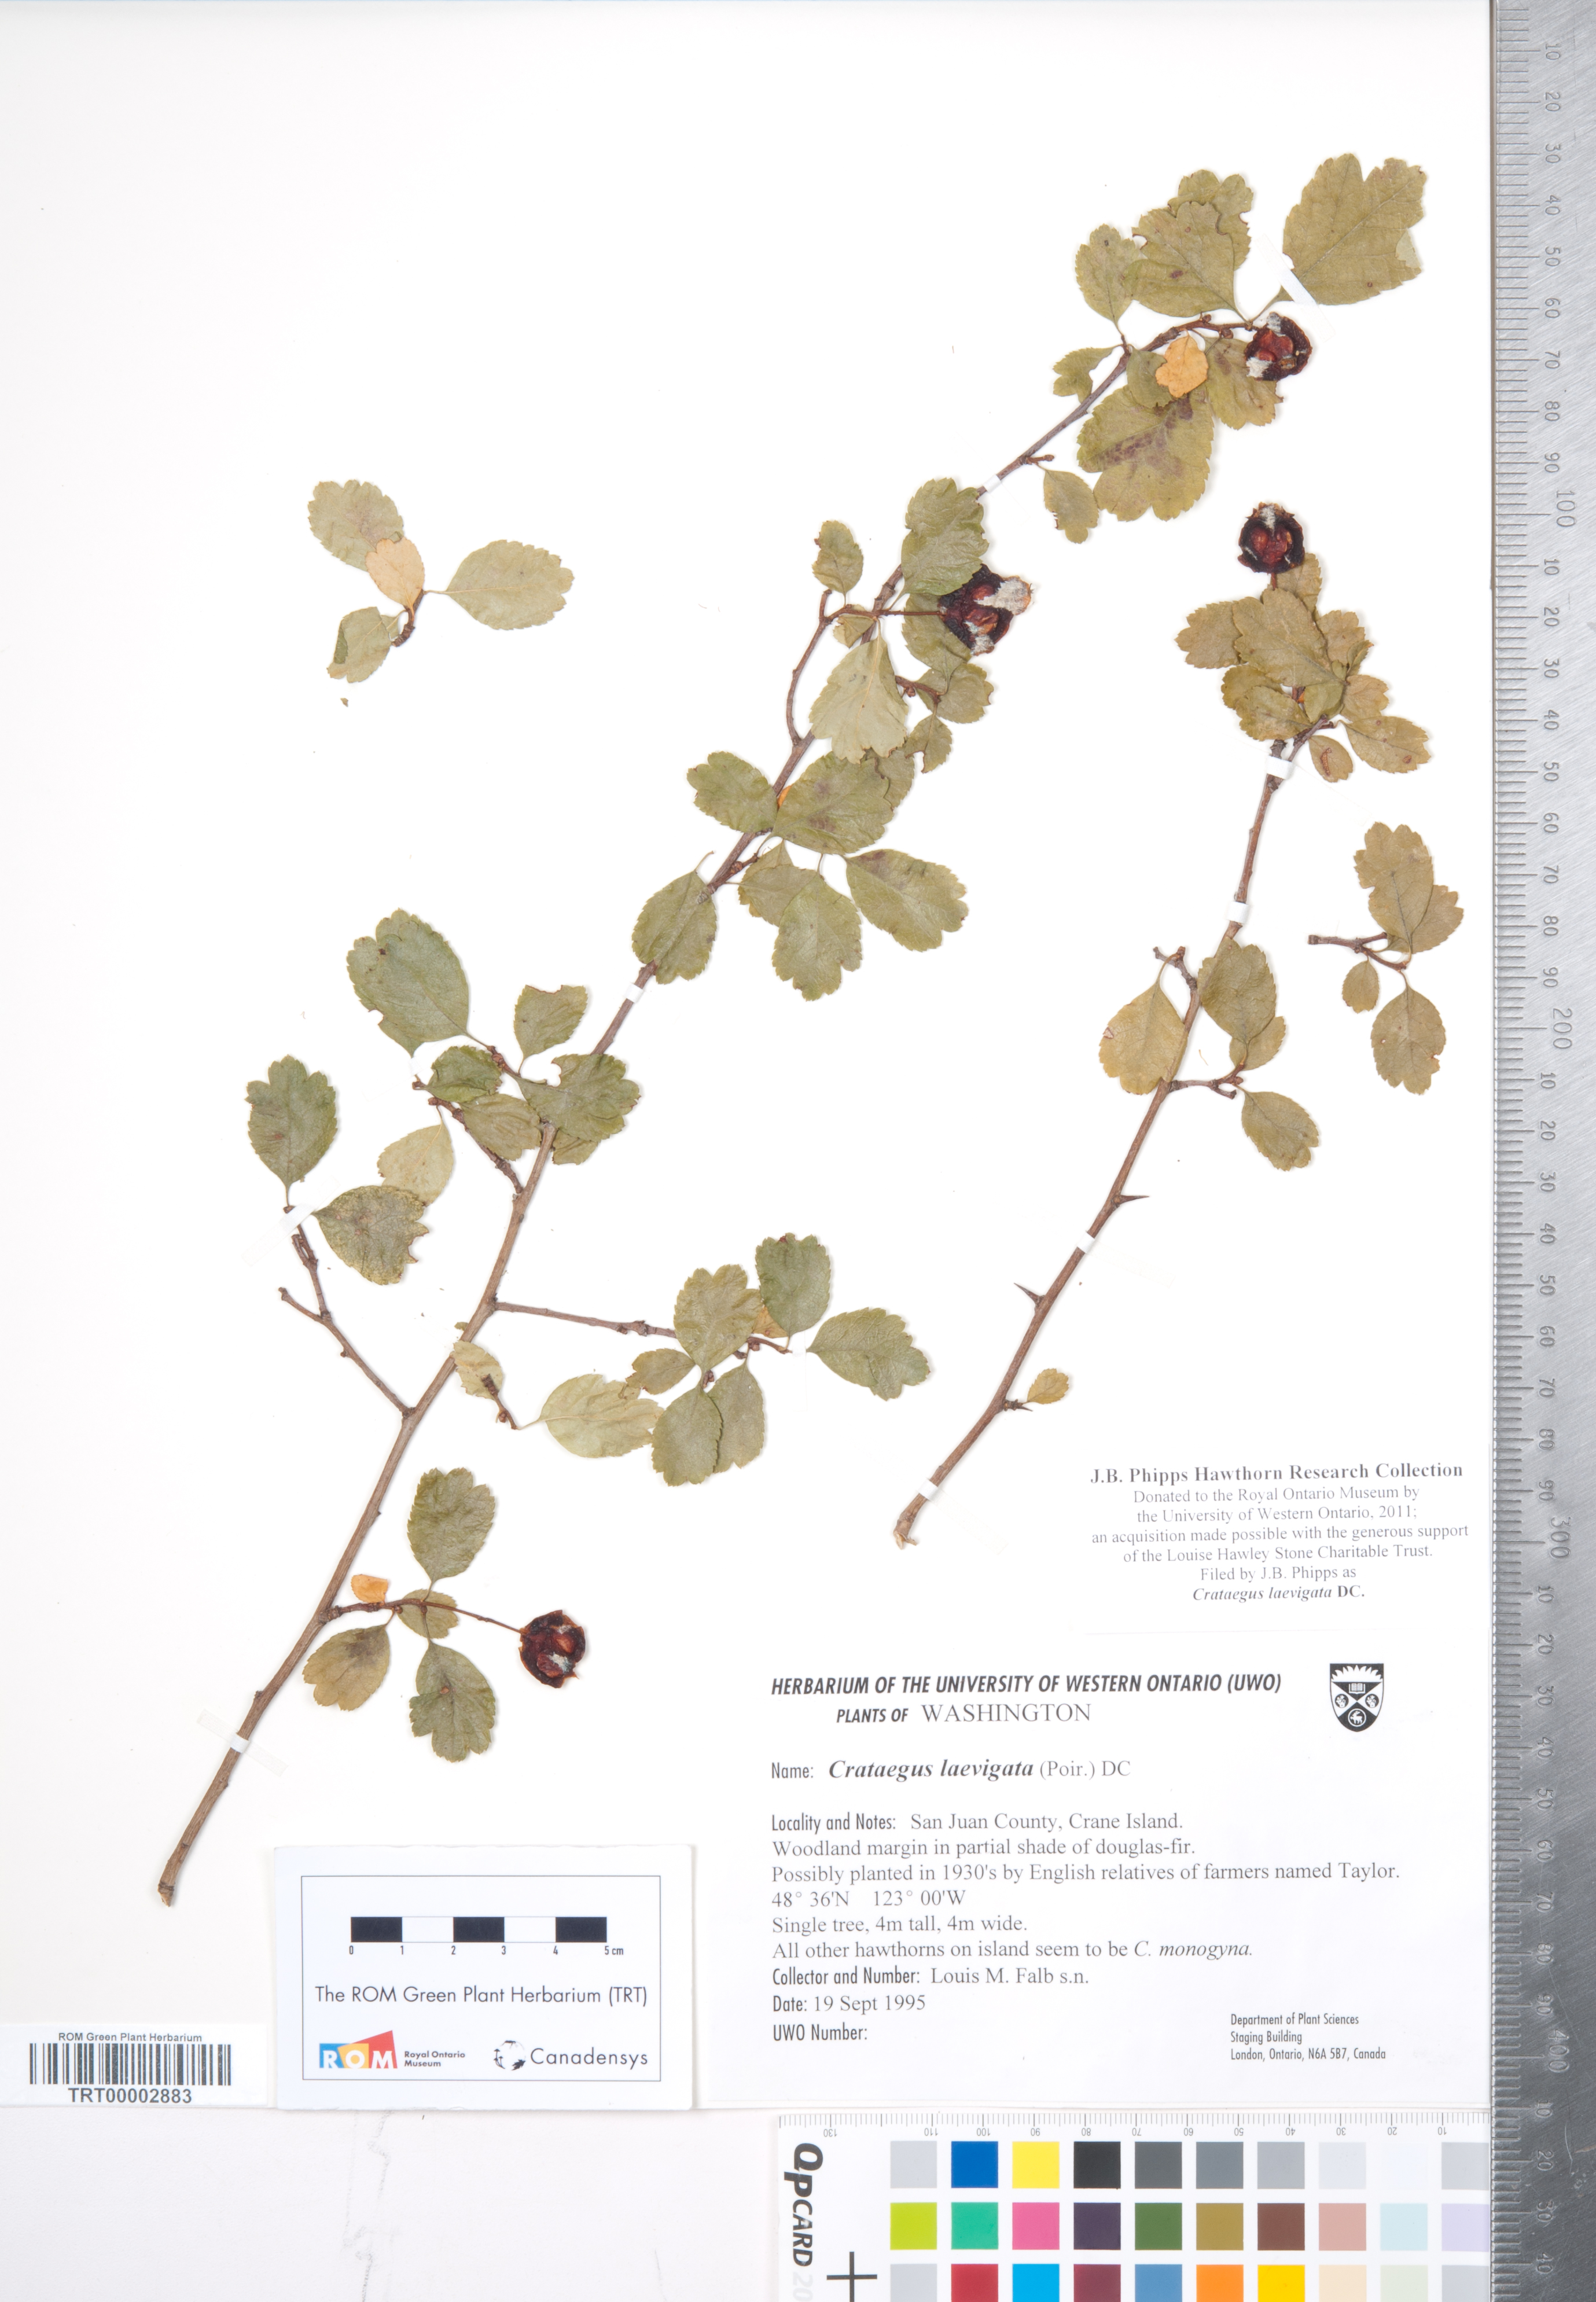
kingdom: Plantae
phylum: Tracheophyta
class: Magnoliopsida
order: Rosales
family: Rosaceae
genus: Crataegus
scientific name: Crataegus laevigata
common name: Midland hawthorn
